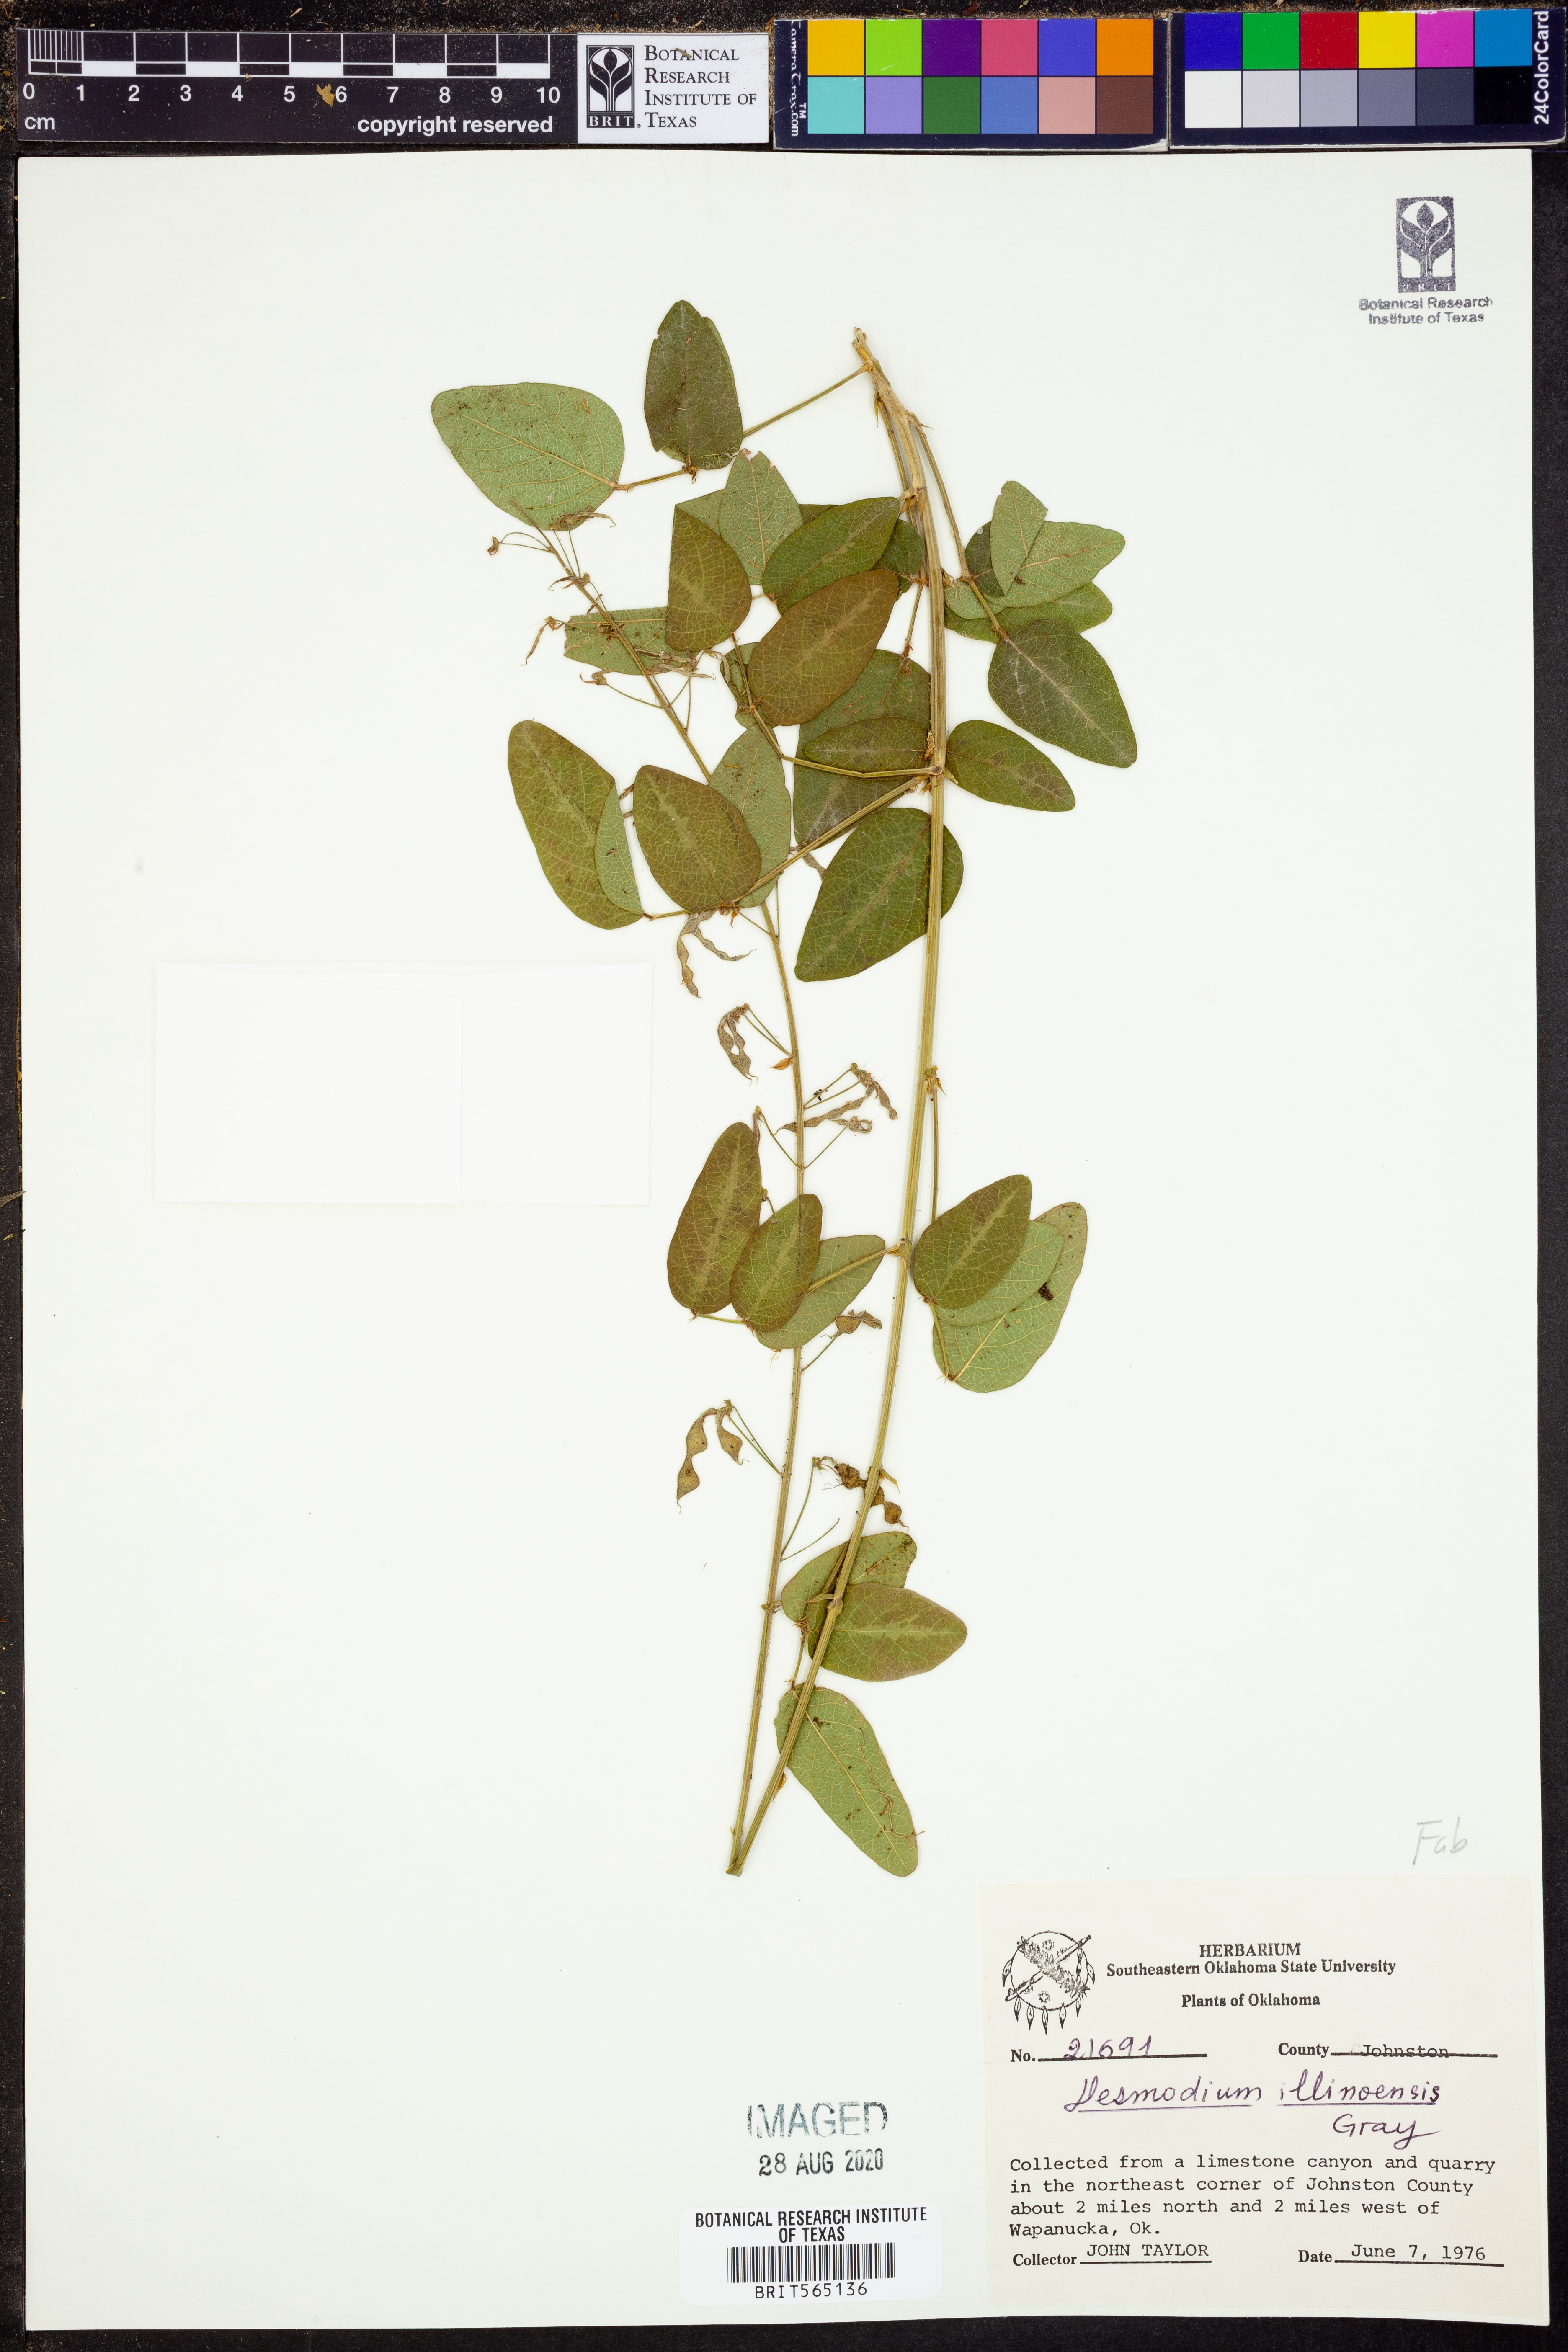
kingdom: Plantae
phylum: Tracheophyta
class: Magnoliopsida
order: Fabales
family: Fabaceae
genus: Desmodium
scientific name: Desmodium illinoense
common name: Illinois tick-clover
